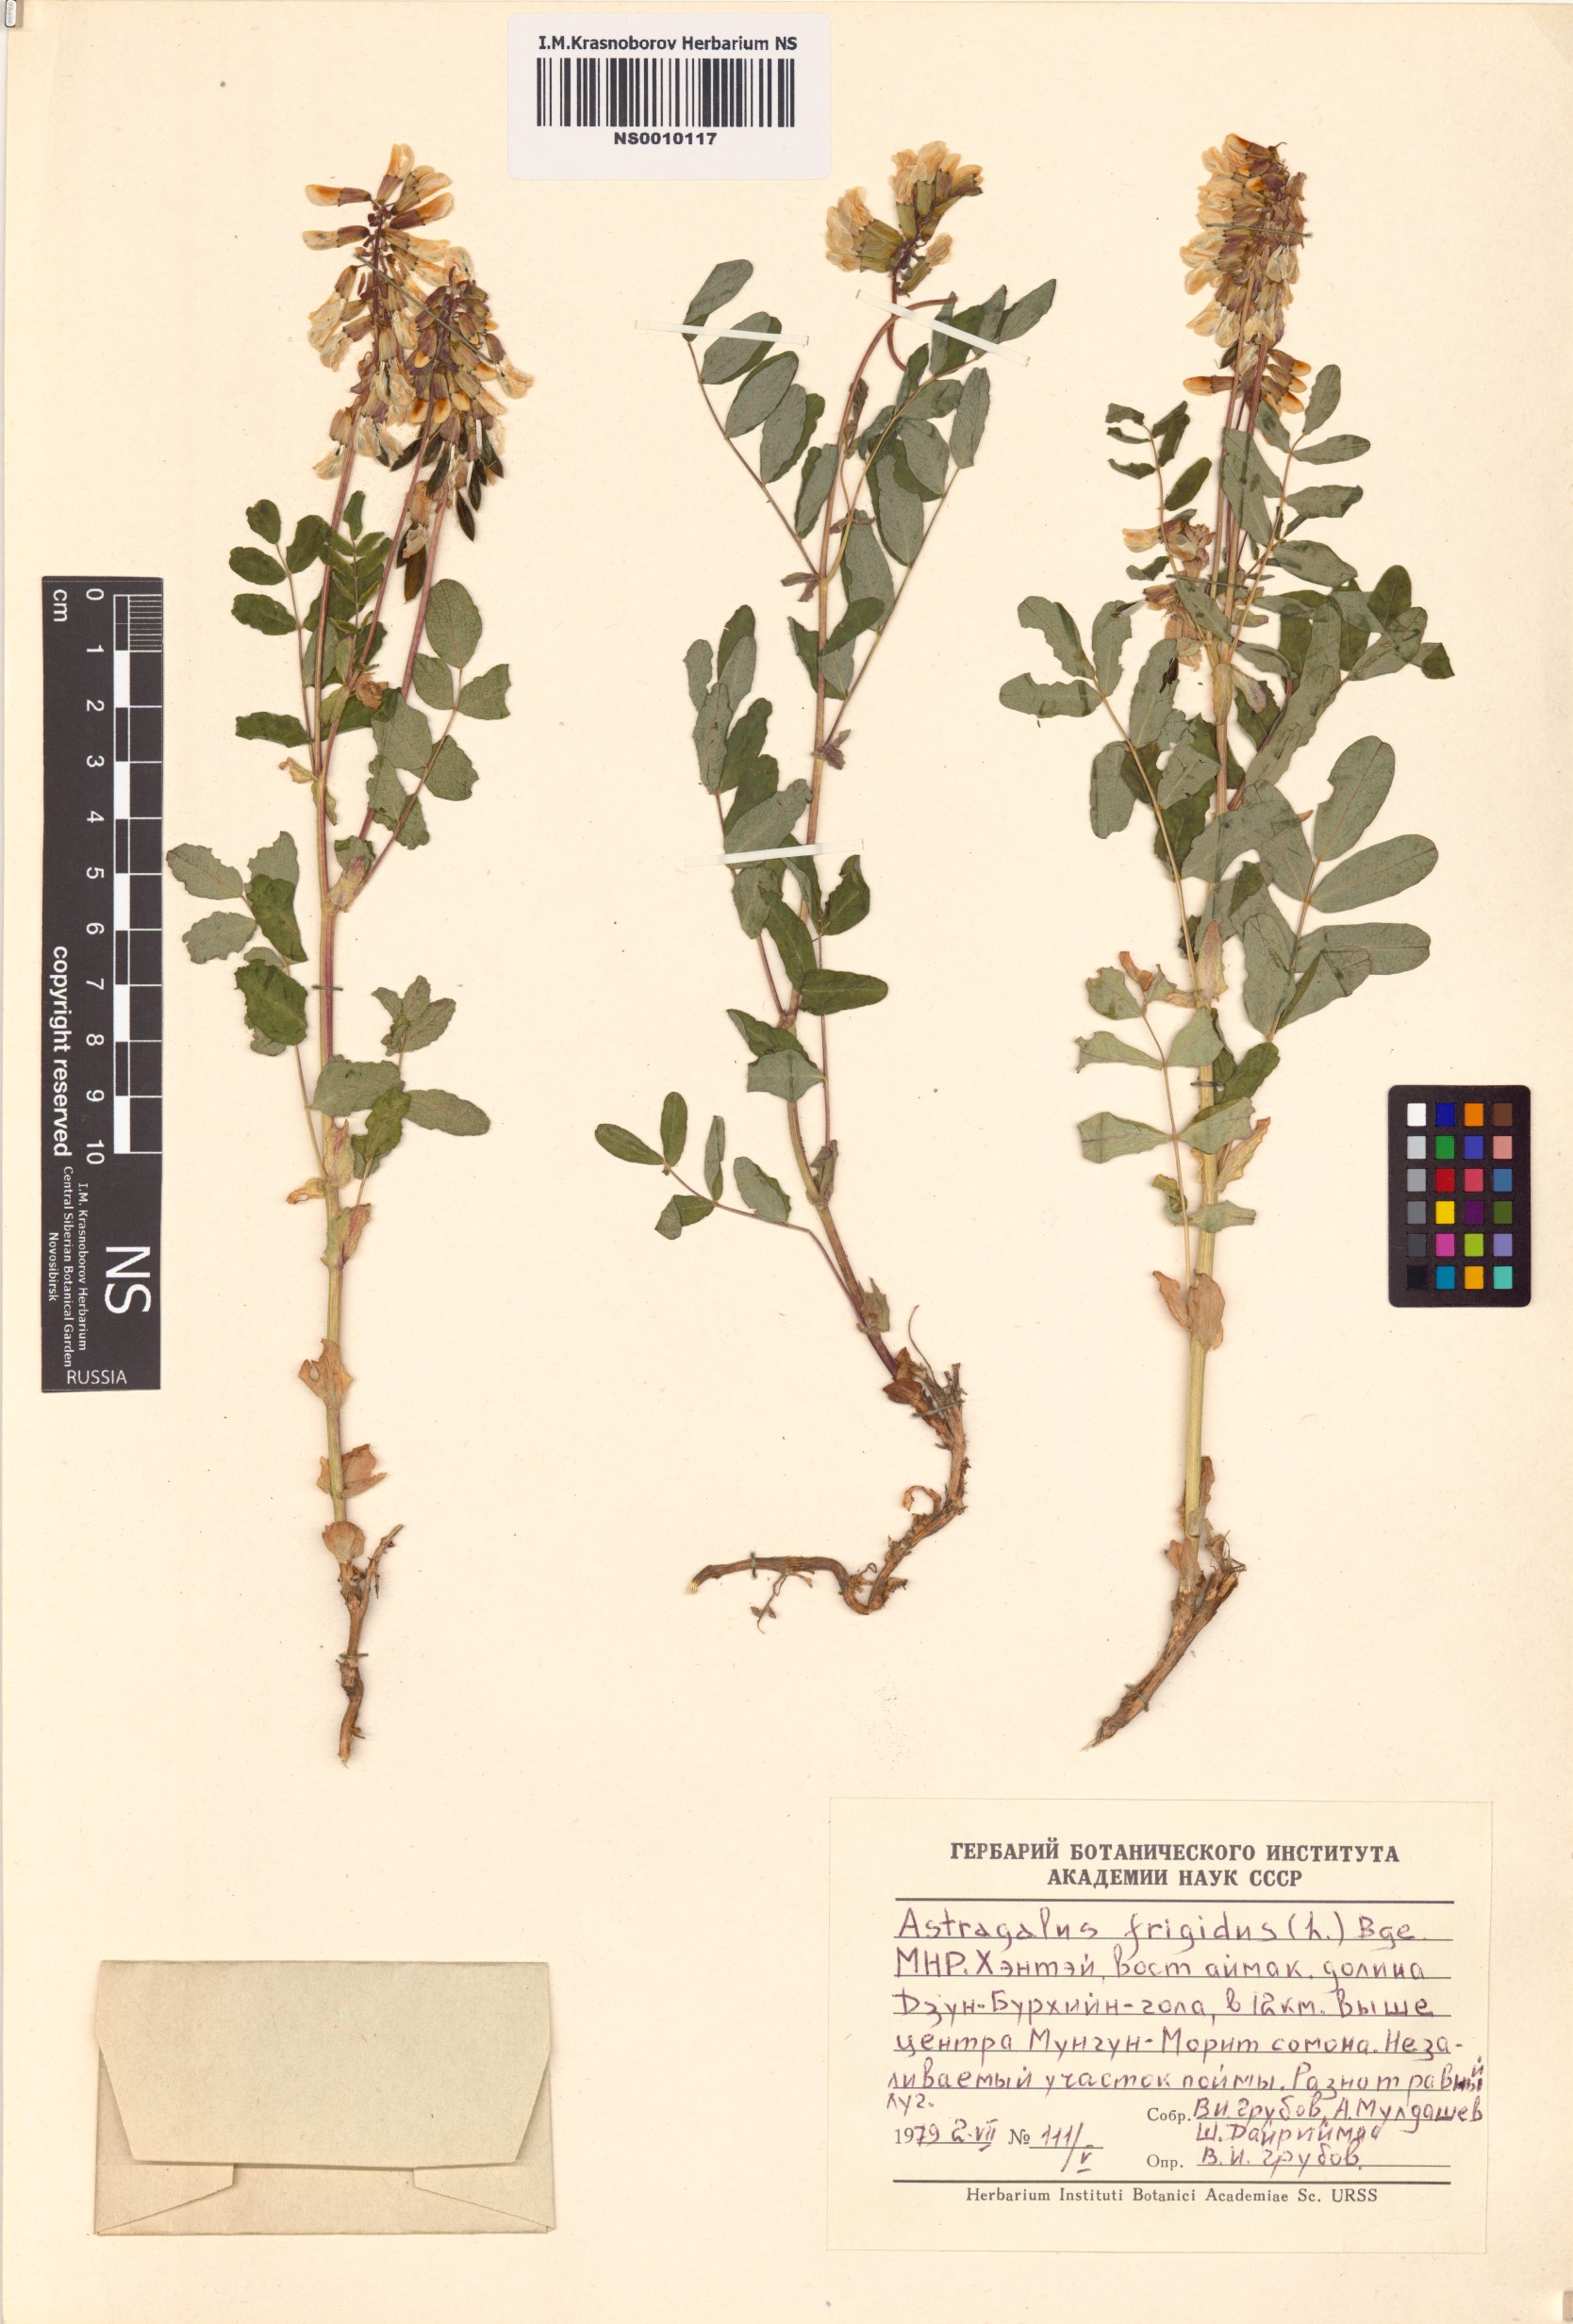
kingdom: Plantae
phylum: Tracheophyta
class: Magnoliopsida
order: Fabales
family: Fabaceae
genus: Astragalus
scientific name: Astragalus frigidus
